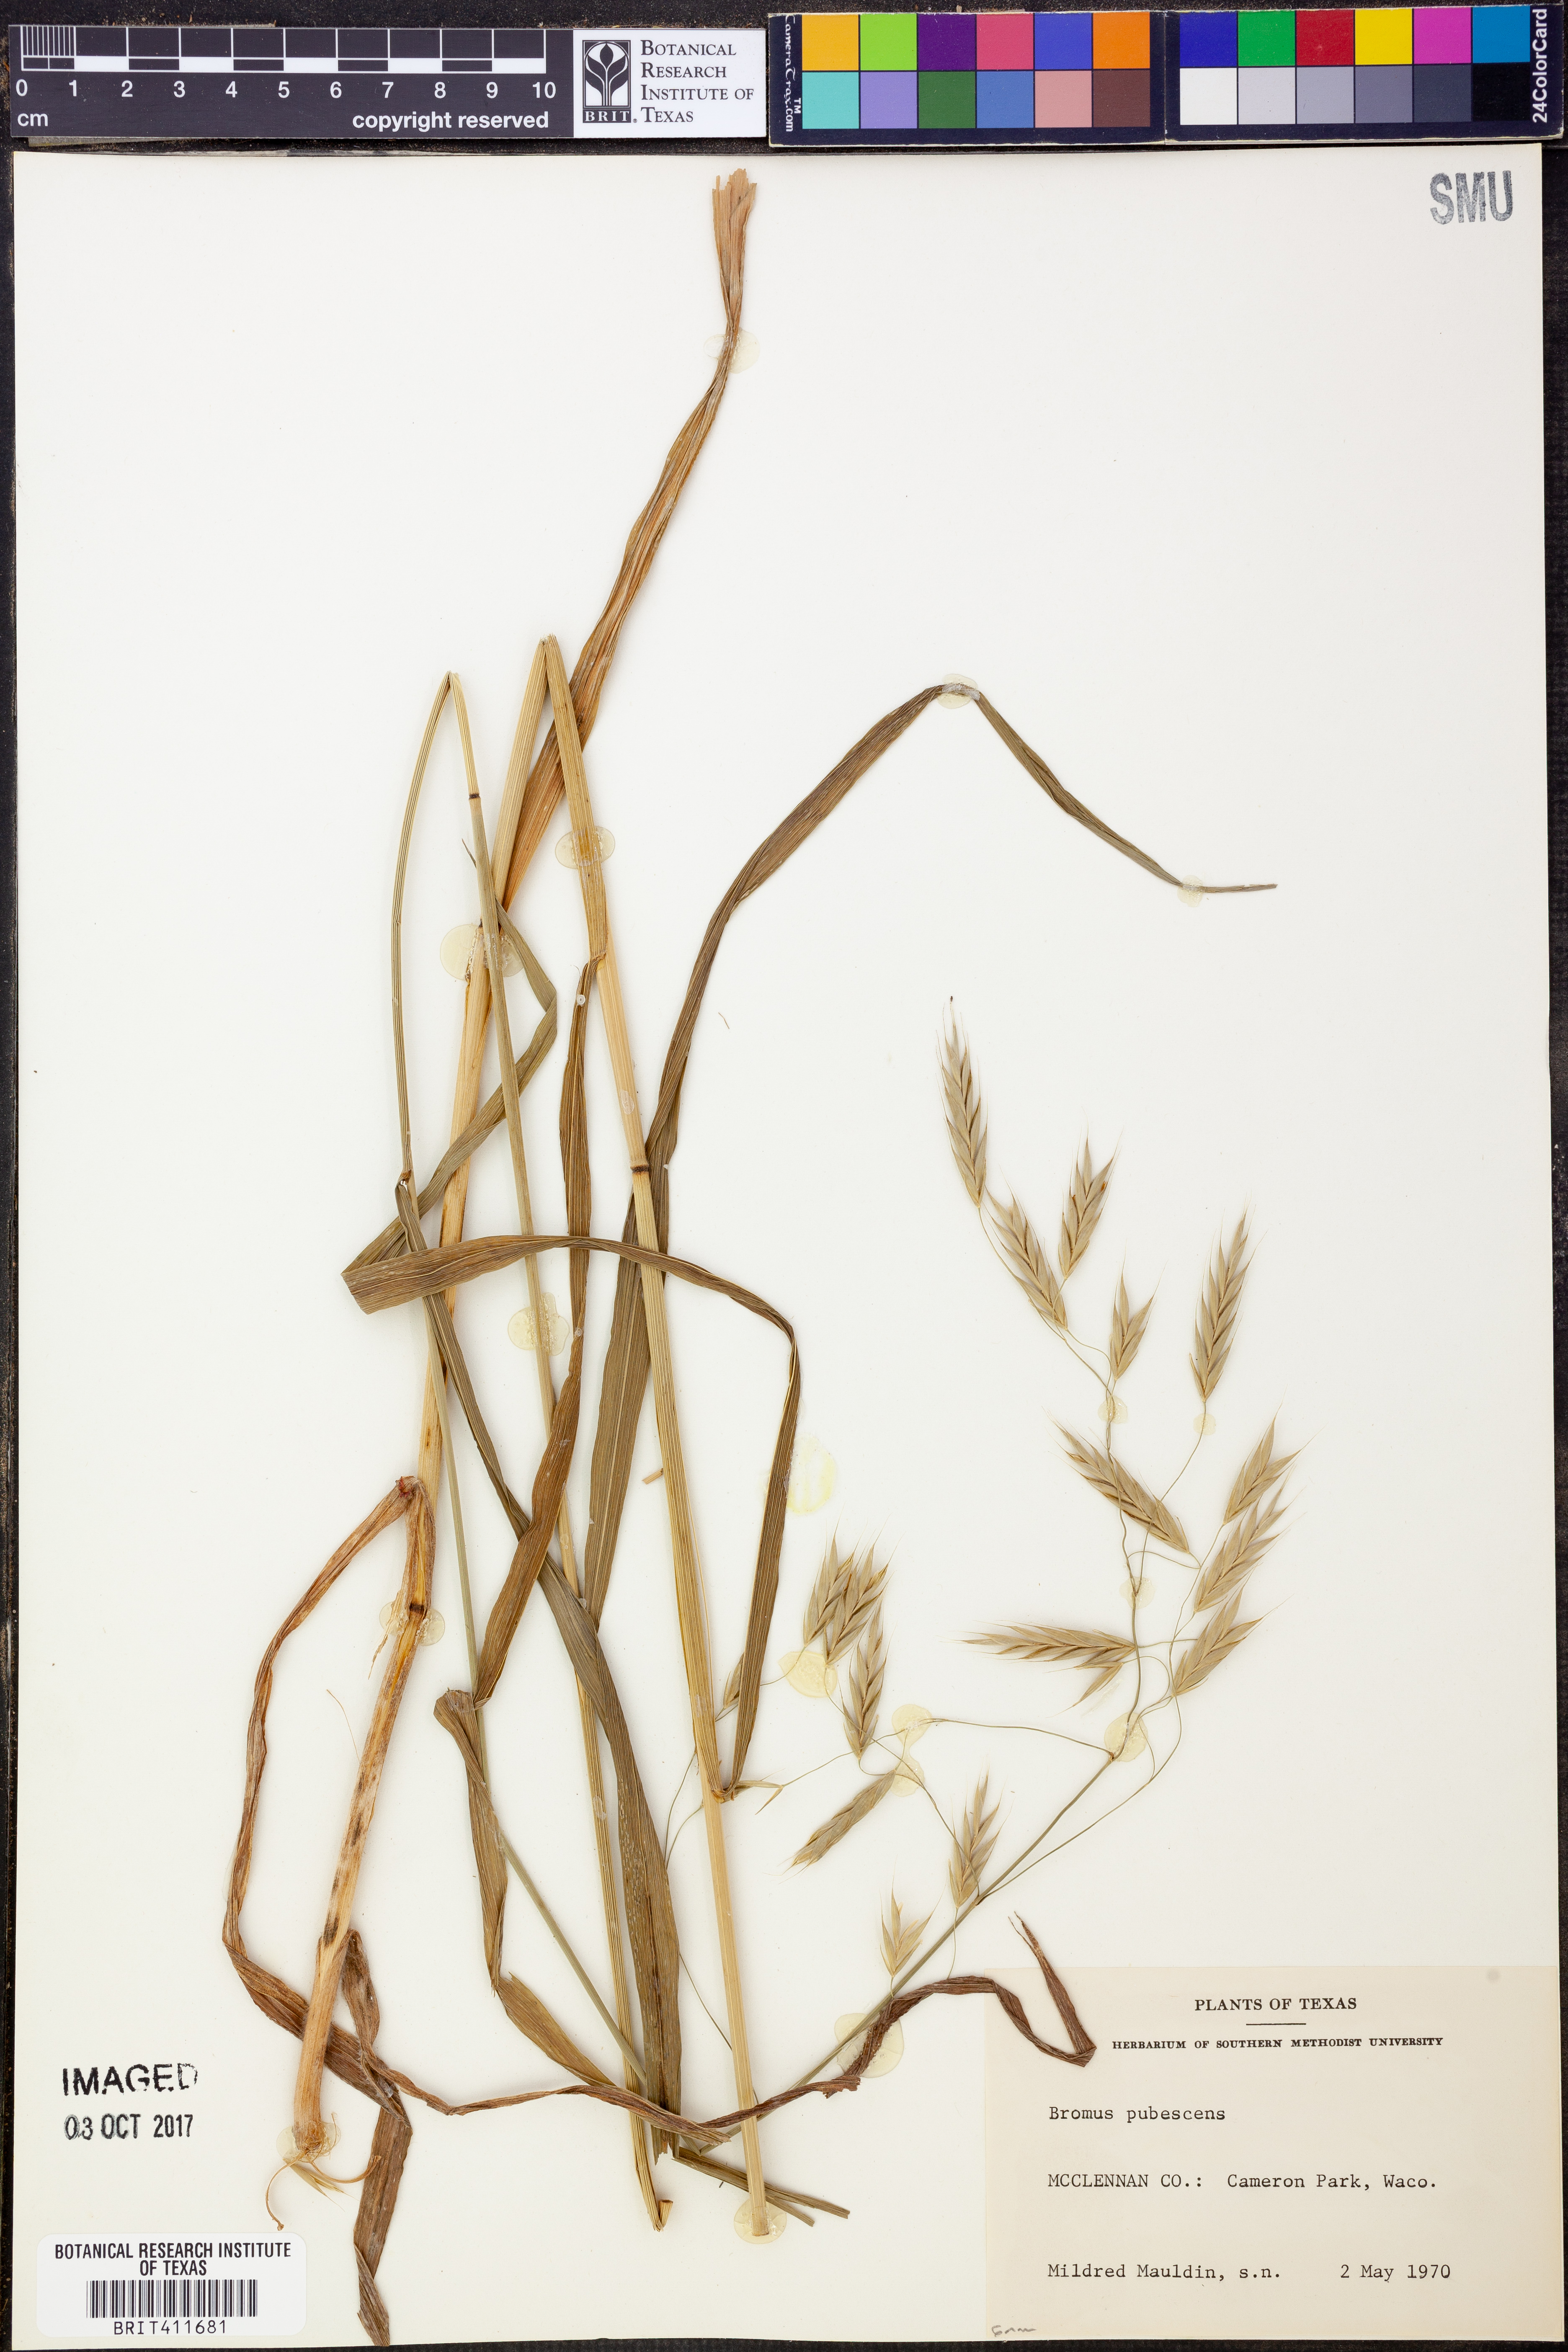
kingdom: Plantae
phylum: Tracheophyta
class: Liliopsida
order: Poales
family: Poaceae
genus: Bromus
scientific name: Bromus pubescens
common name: Hairy wood brome grass
